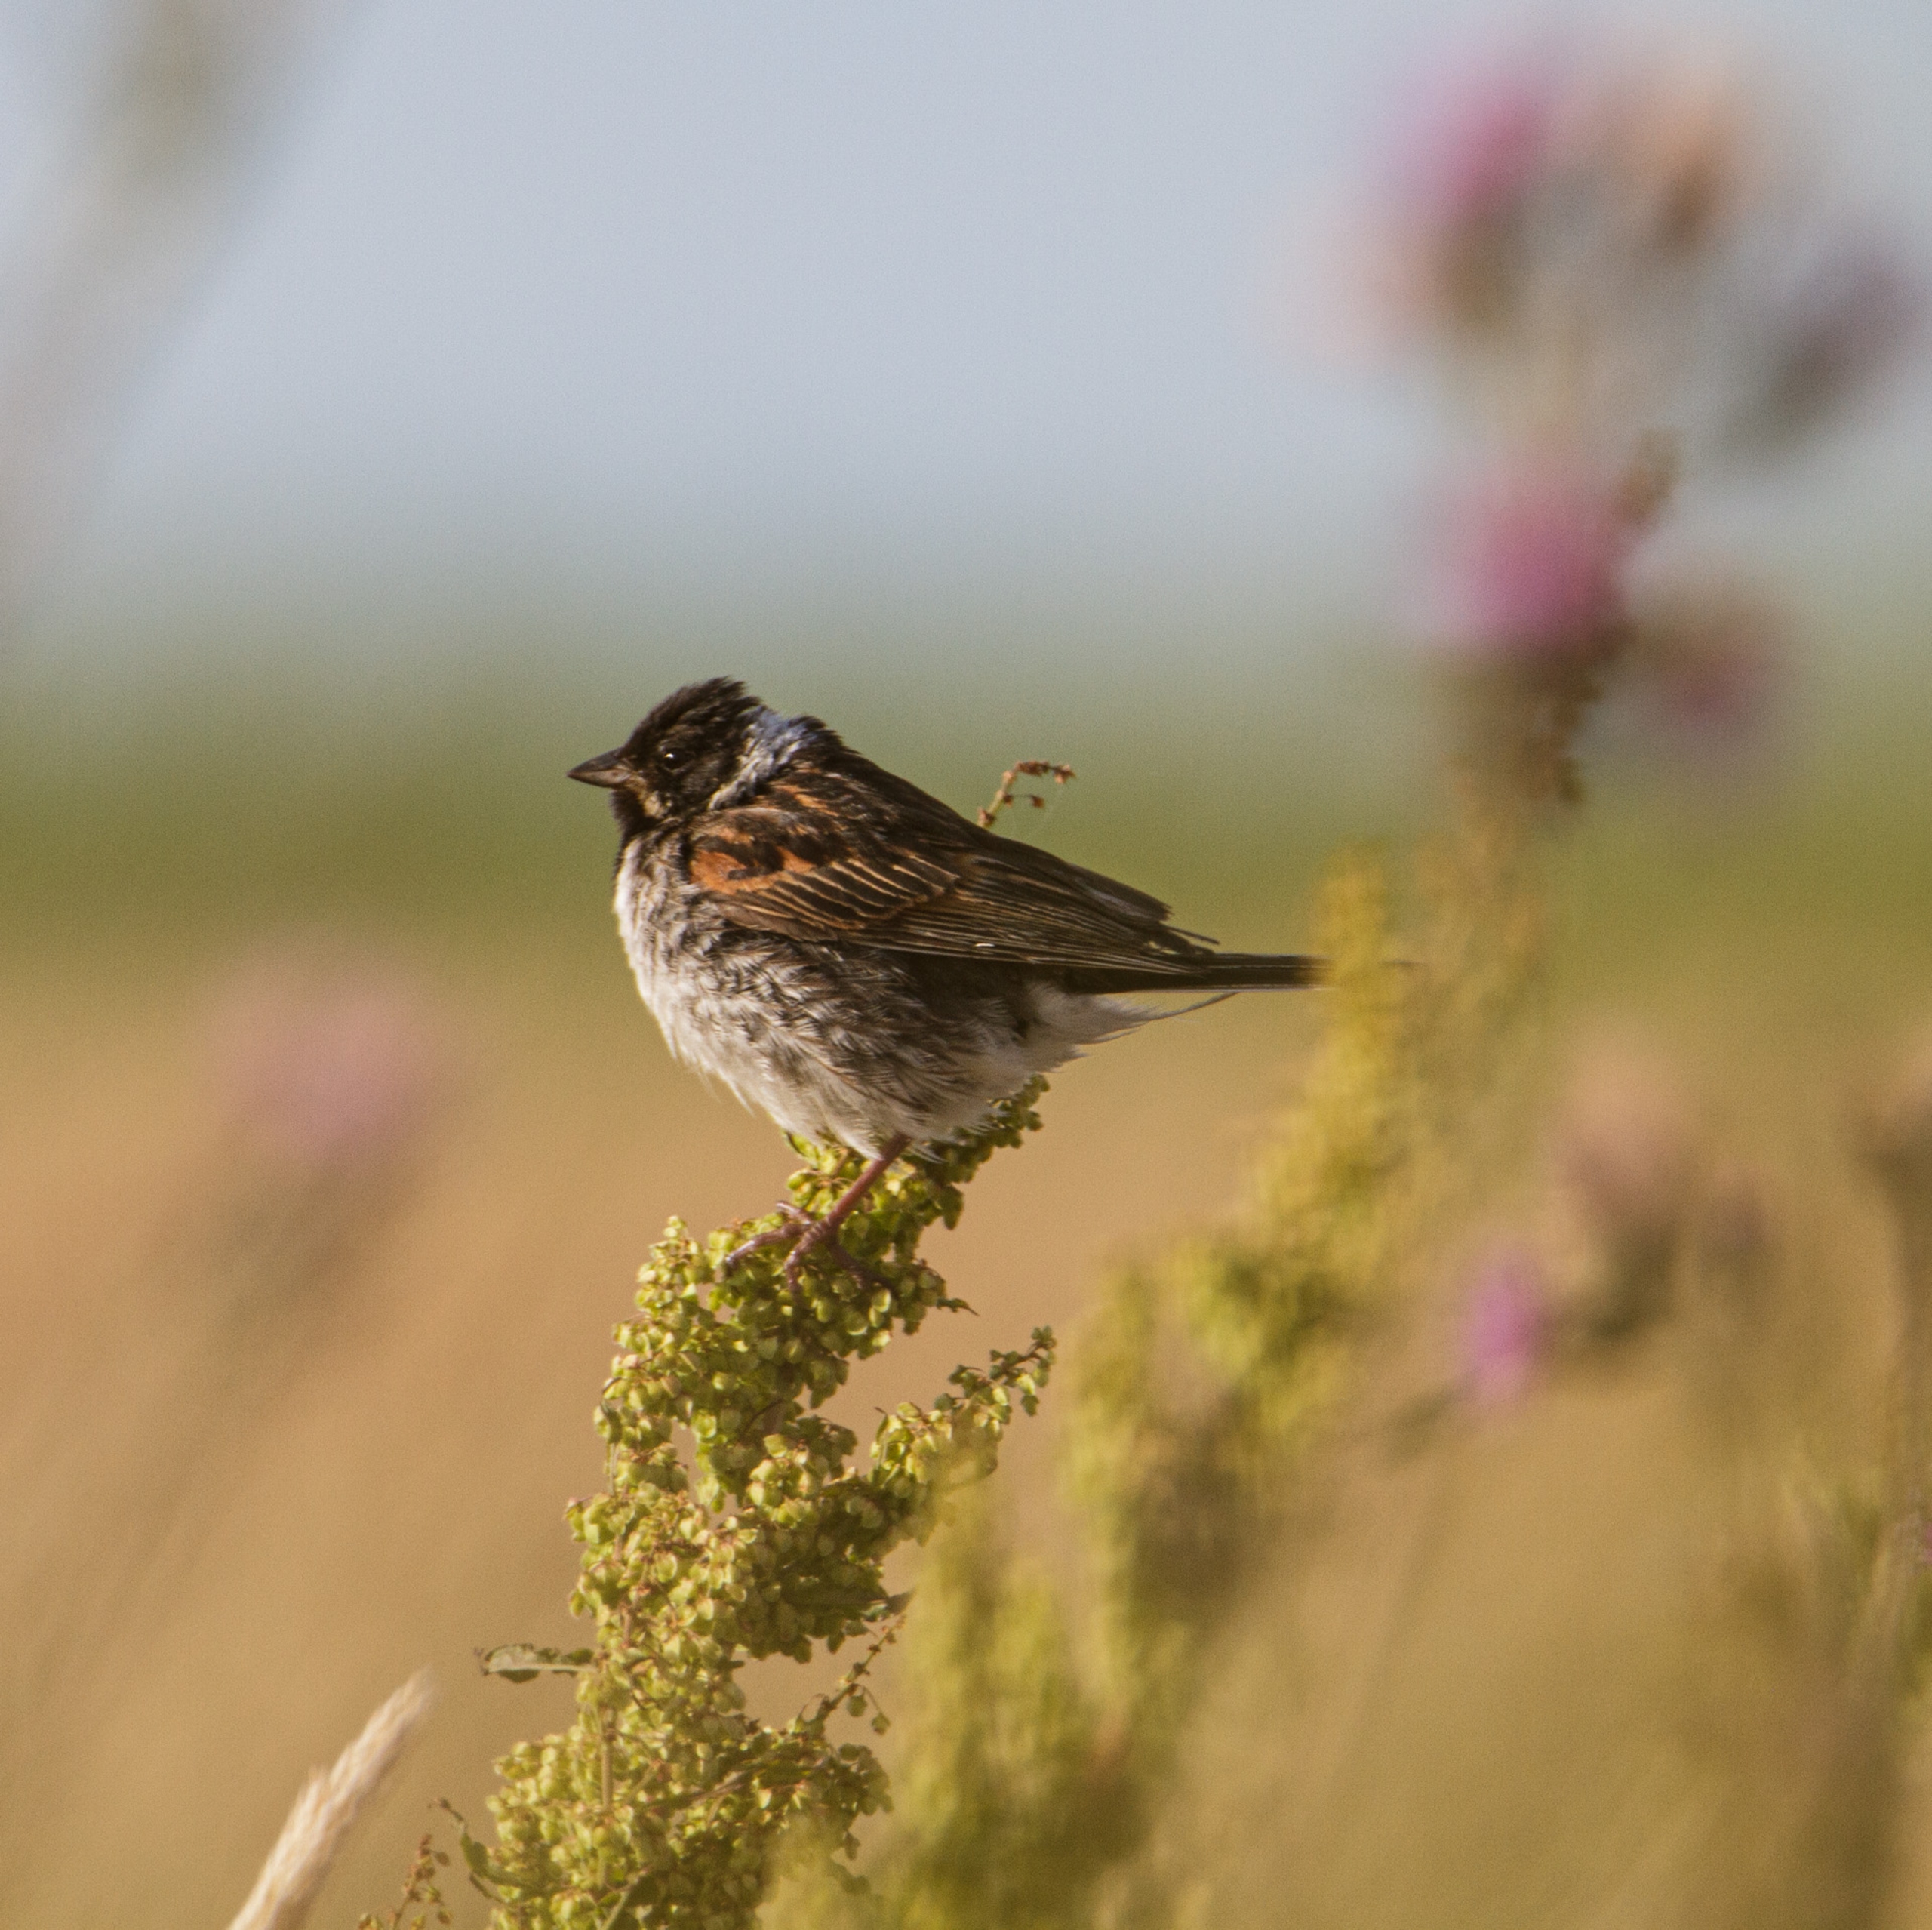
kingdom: Animalia
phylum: Chordata
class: Aves
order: Passeriformes
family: Emberizidae
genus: Emberiza
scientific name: Emberiza schoeniclus
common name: Rørspurv
